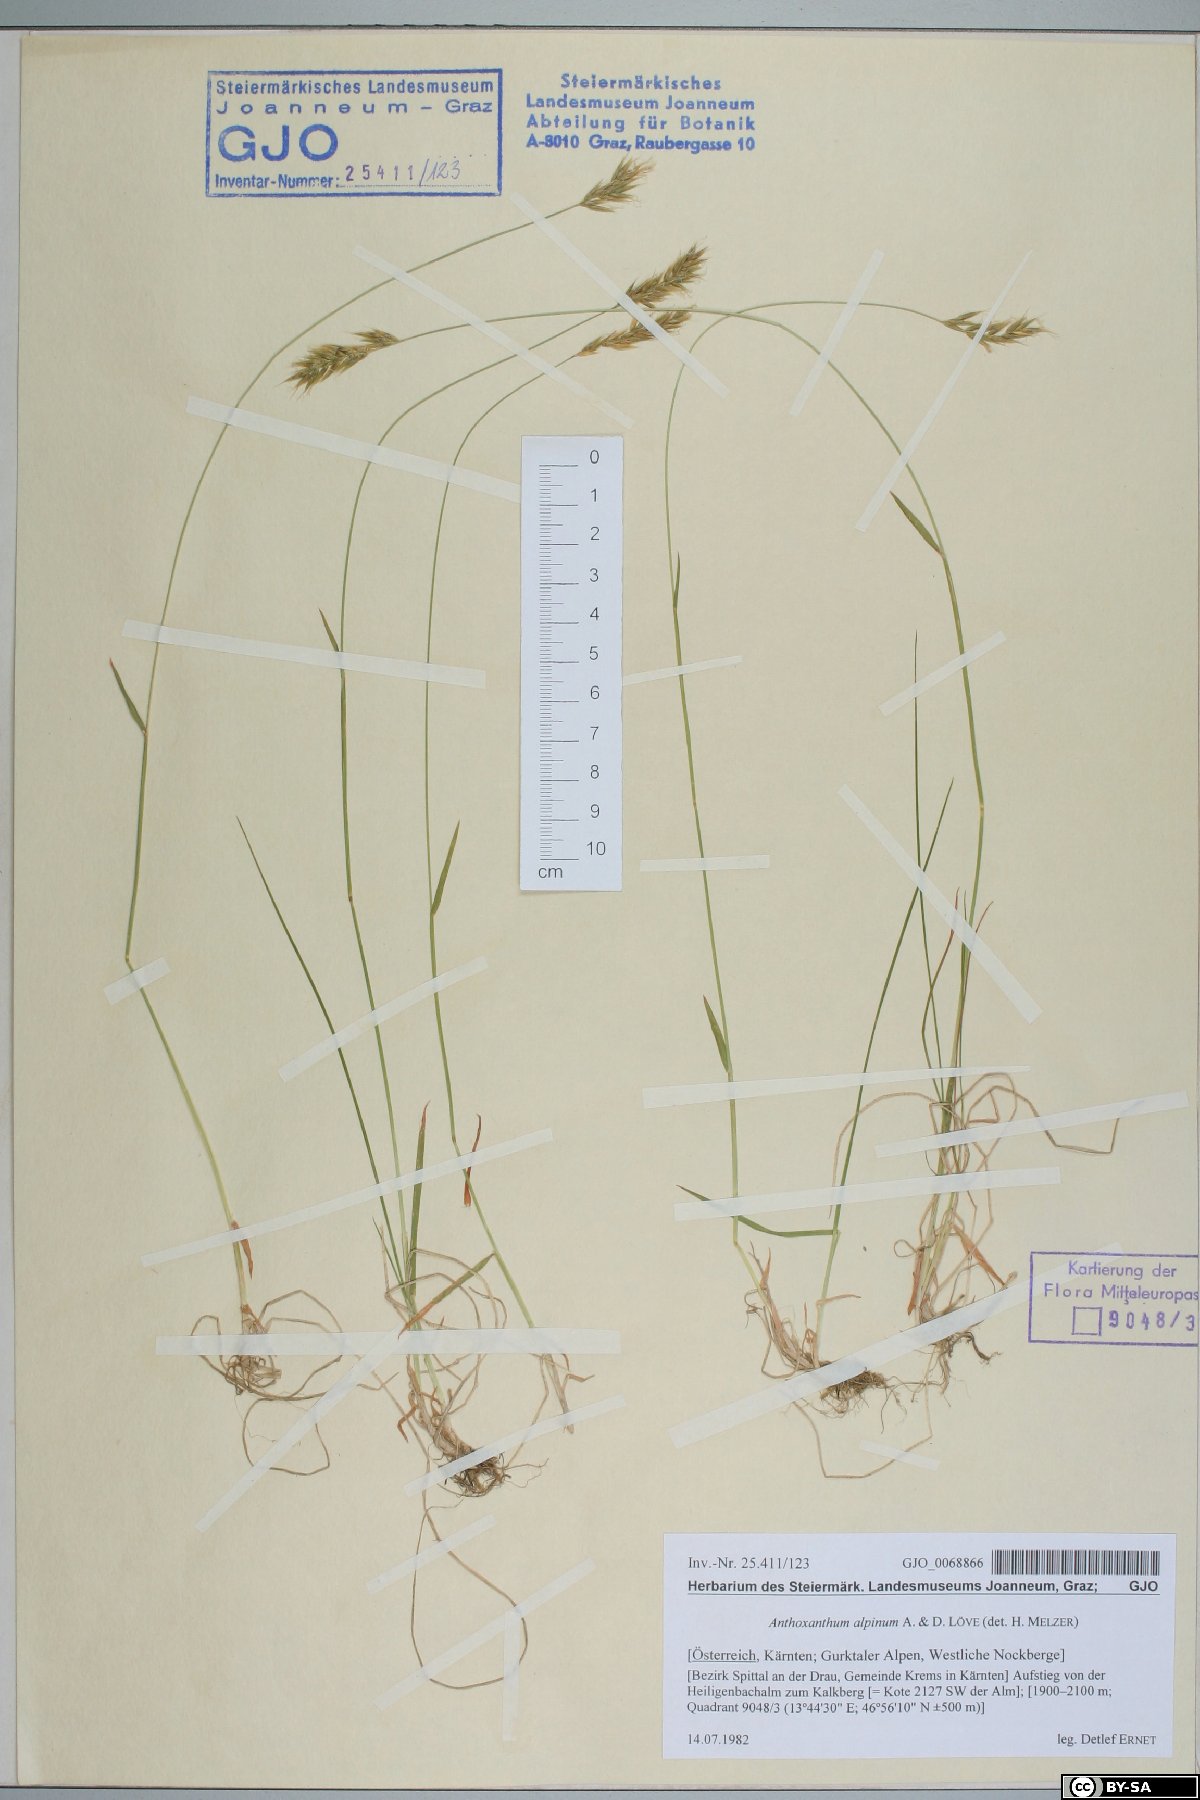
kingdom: Plantae
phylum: Tracheophyta
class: Liliopsida
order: Poales
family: Poaceae
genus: Anthoxanthum
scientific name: Anthoxanthum nipponicum
